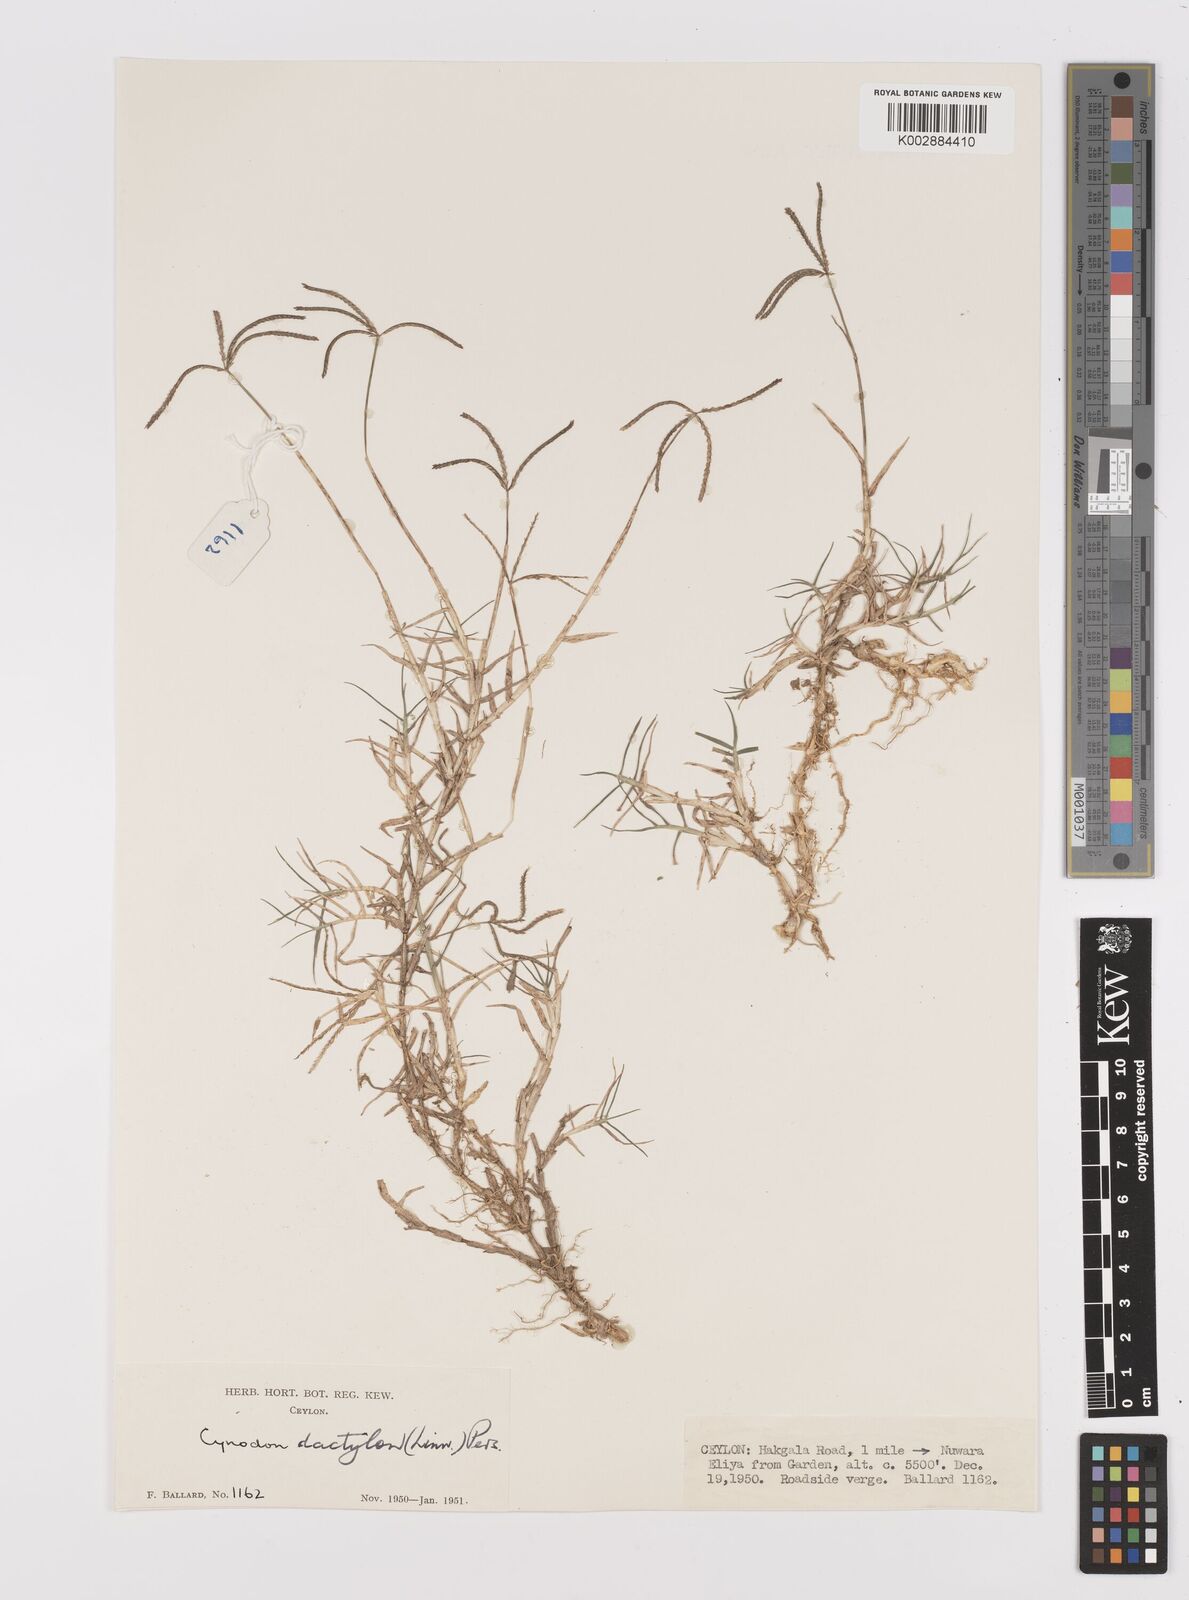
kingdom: Plantae
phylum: Tracheophyta
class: Liliopsida
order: Poales
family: Poaceae
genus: Cynodon
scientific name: Cynodon dactylon
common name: Bermuda grass
